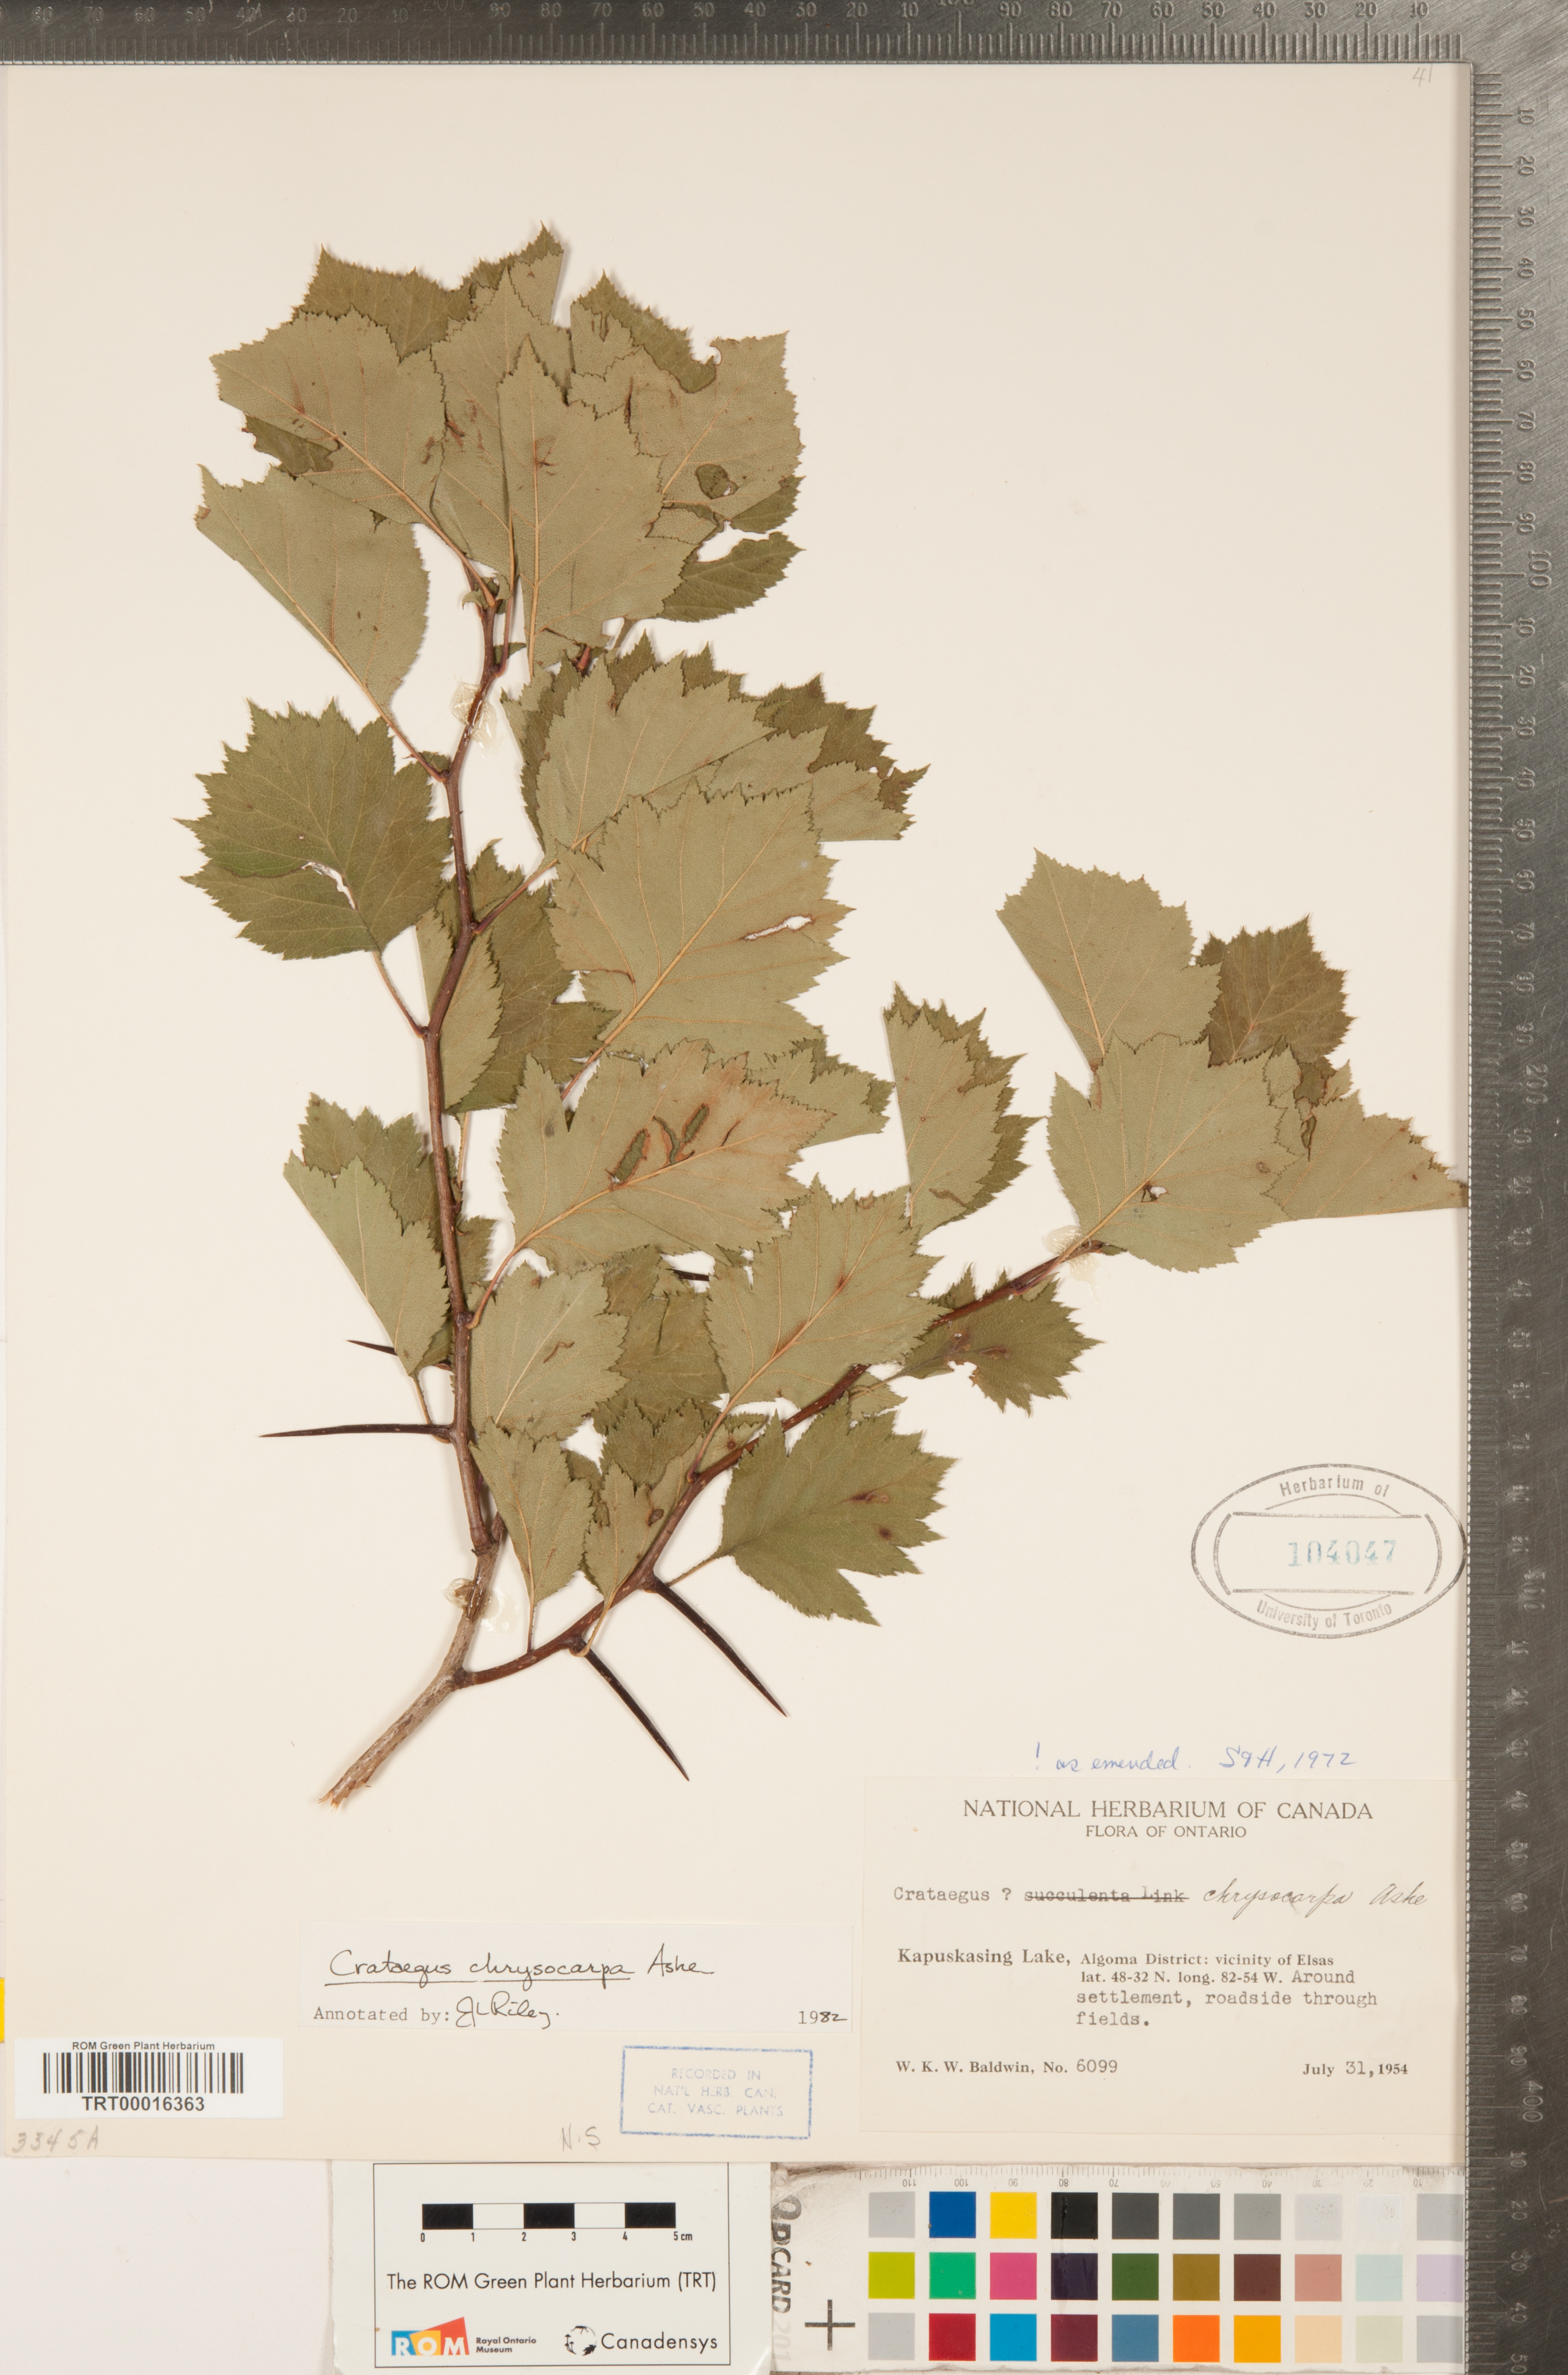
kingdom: Plantae
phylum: Tracheophyta
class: Magnoliopsida
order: Rosales
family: Rosaceae
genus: Crataegus
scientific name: Crataegus chrysocarpa
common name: Fire-berry hawthorn
